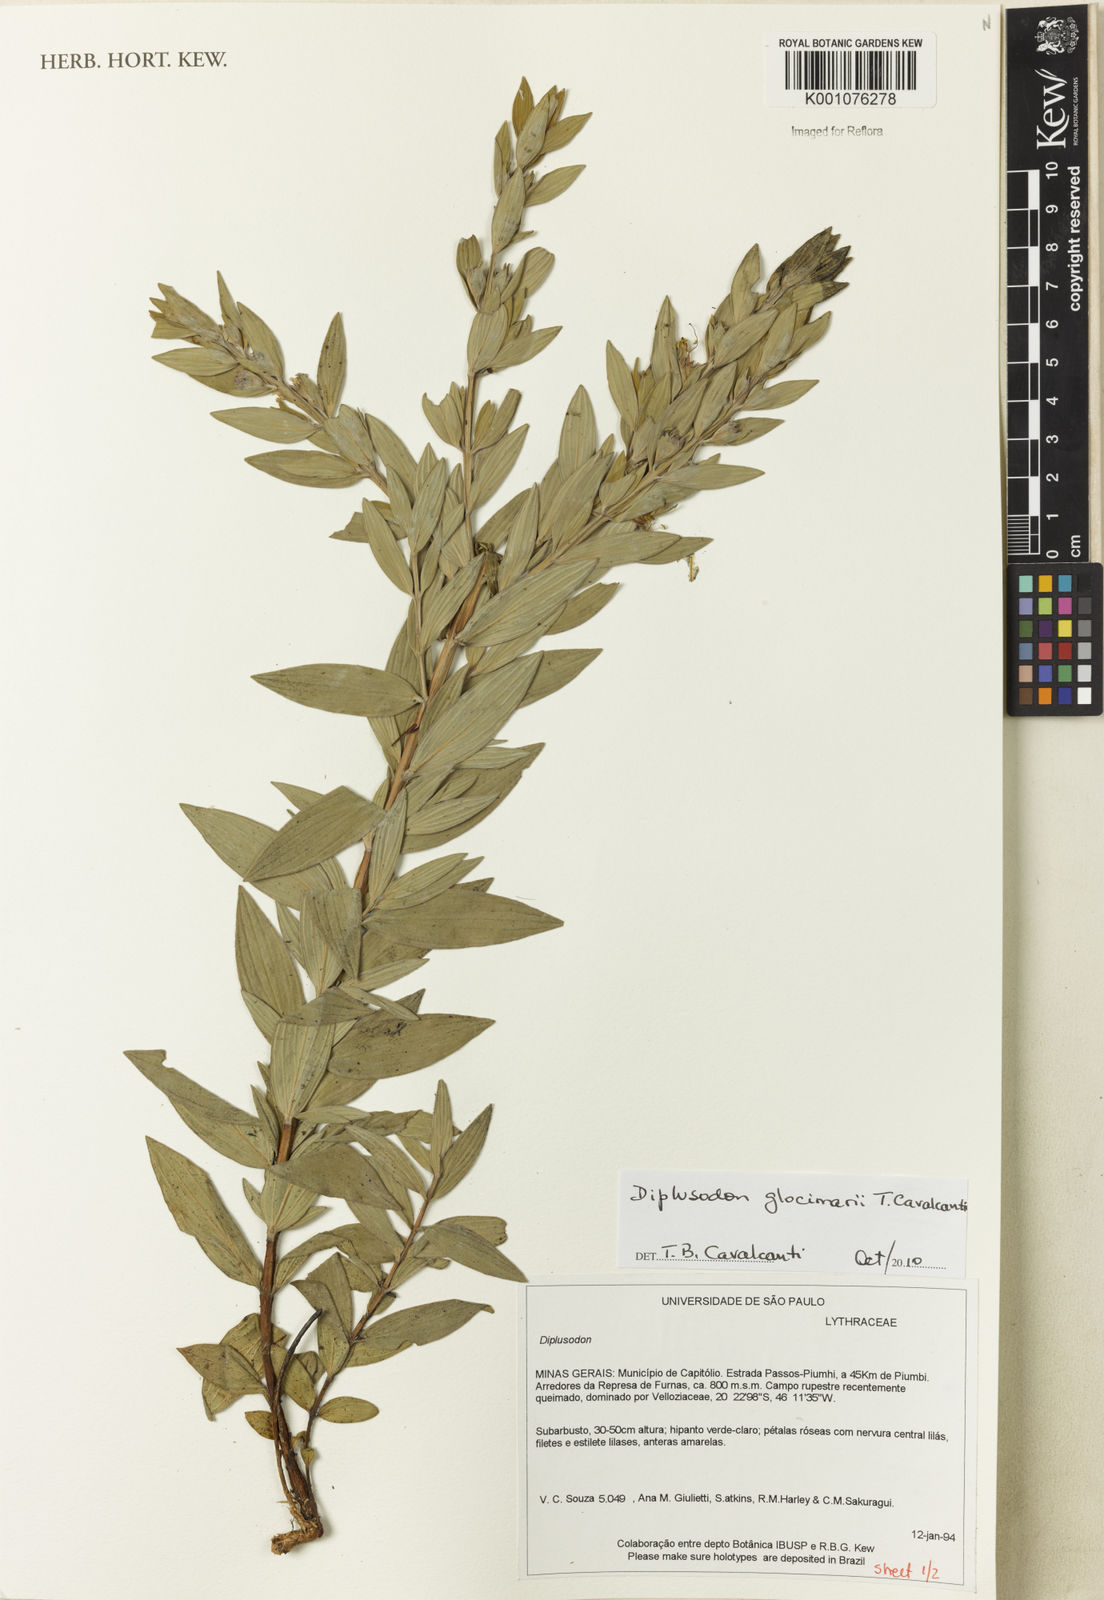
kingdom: Plantae
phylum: Tracheophyta
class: Magnoliopsida
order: Myrtales
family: Lythraceae
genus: Diplusodon
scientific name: Diplusodon nitidus
